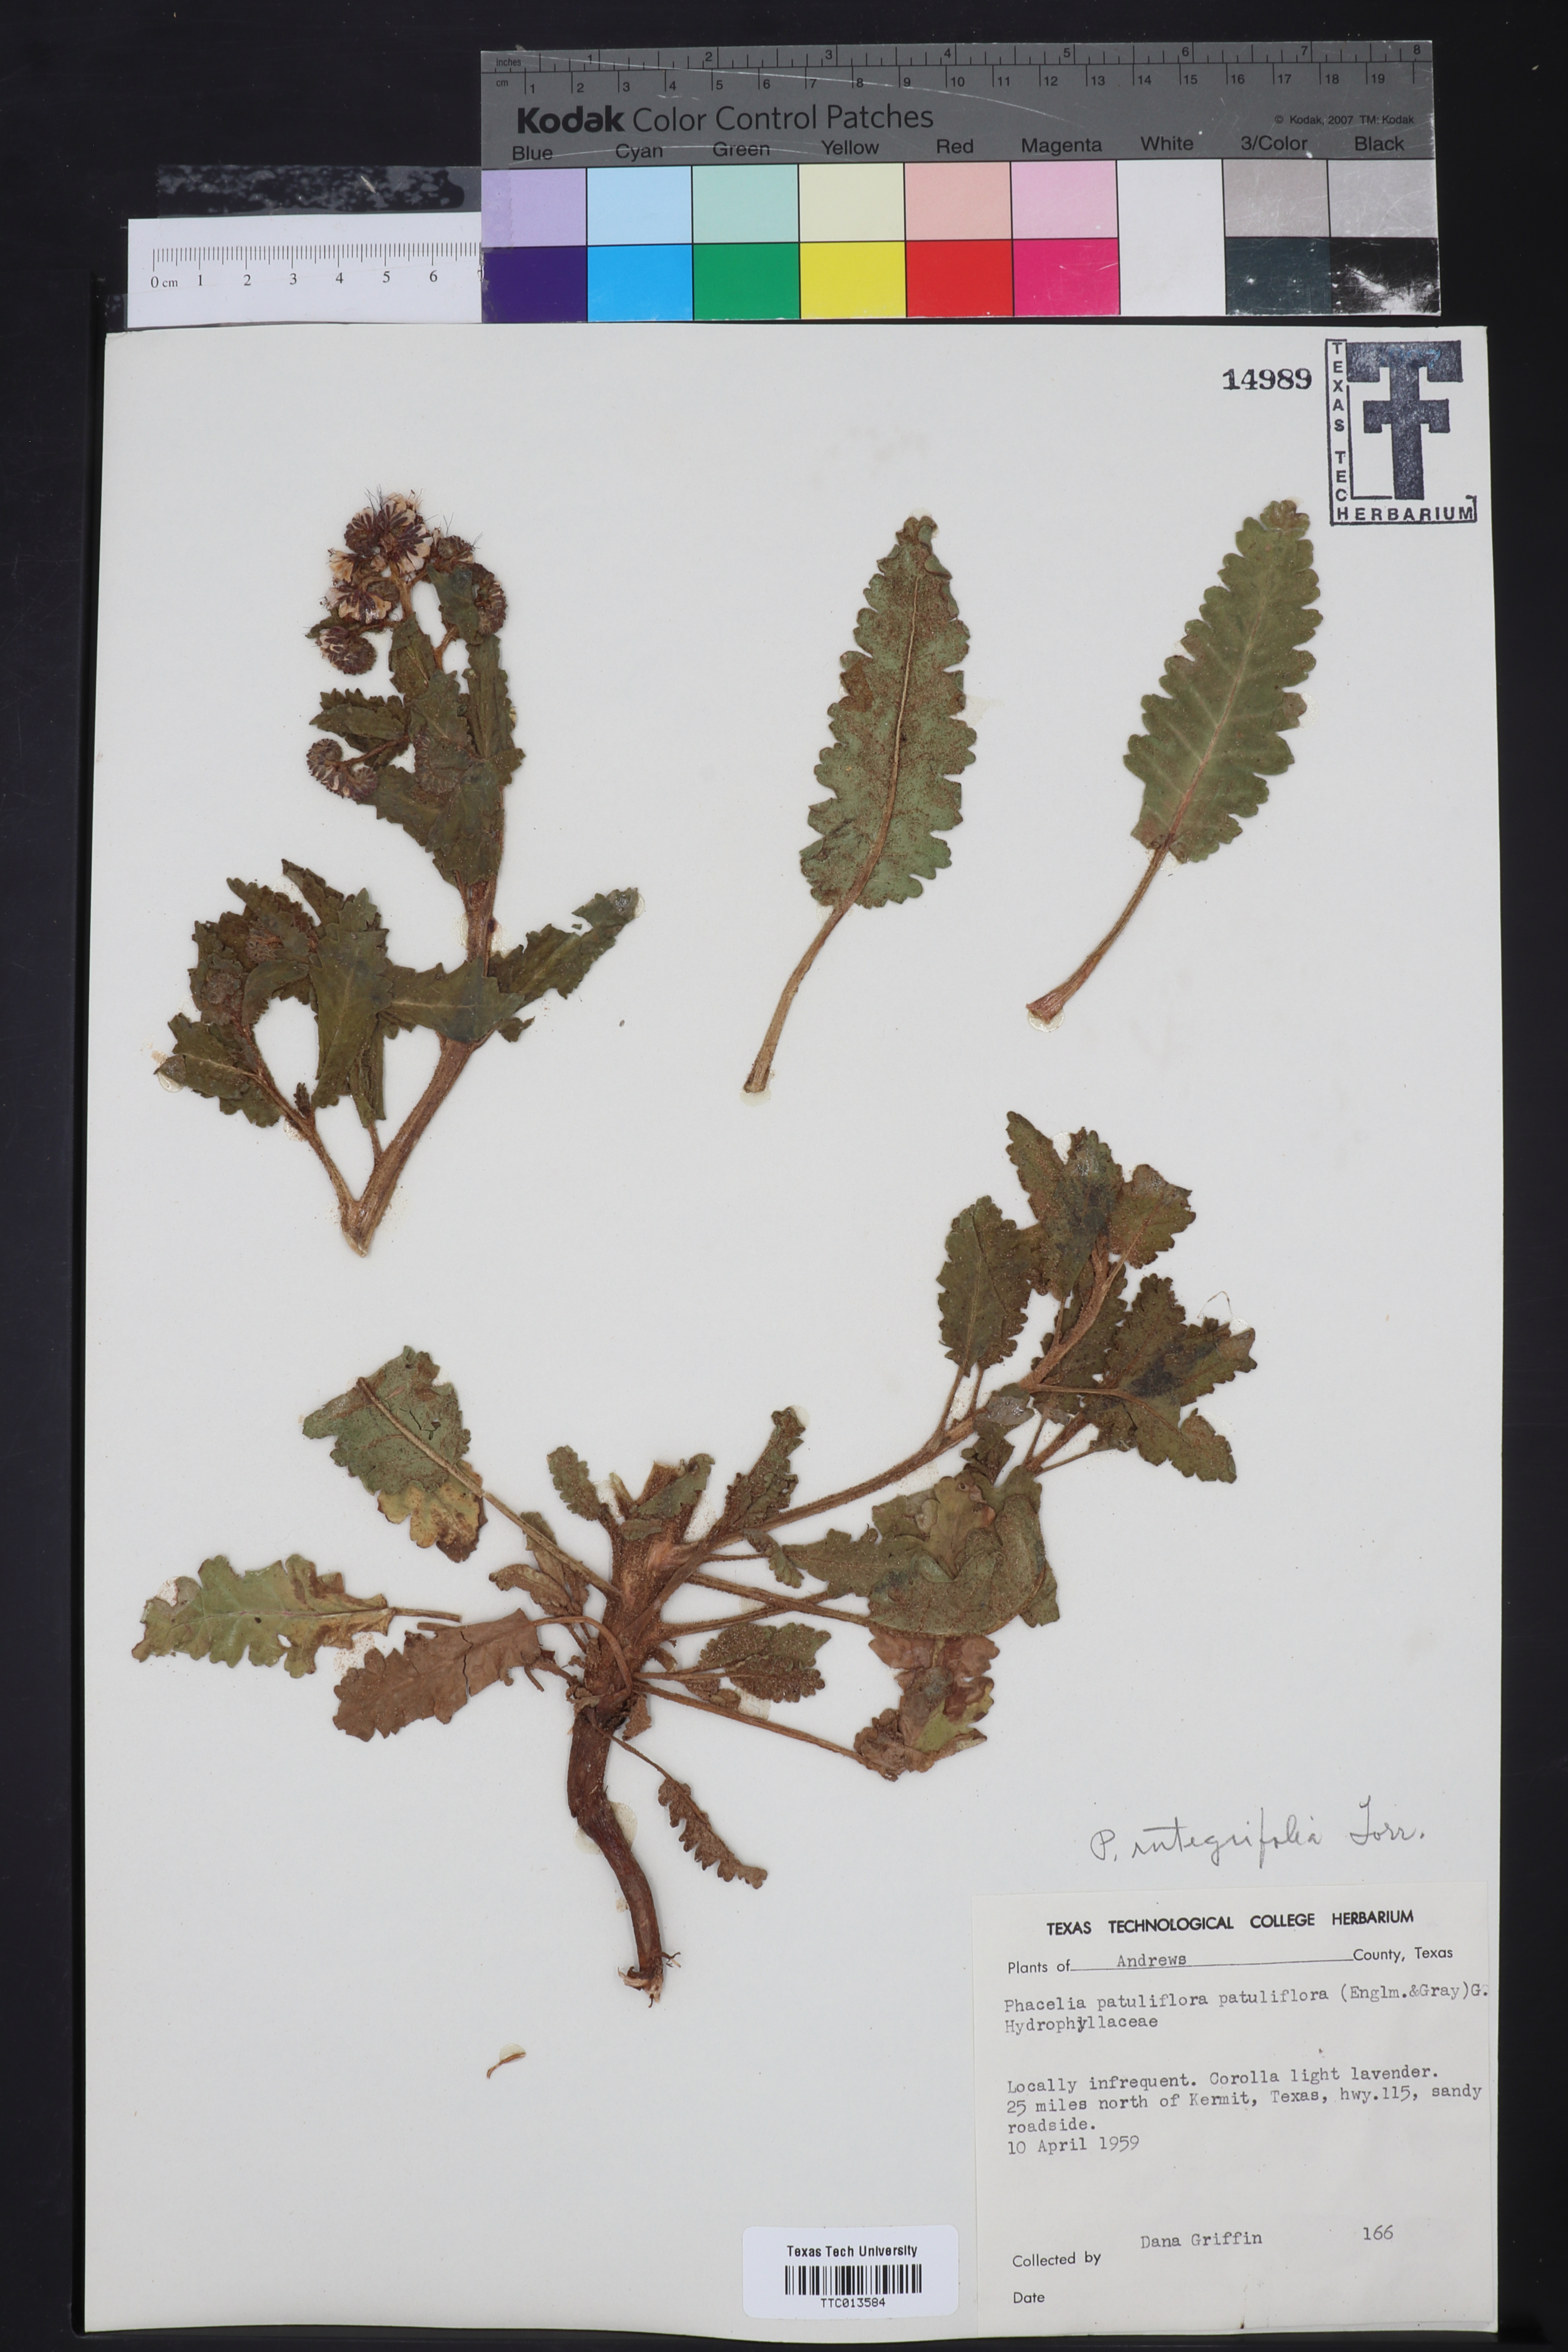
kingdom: Plantae
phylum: Tracheophyta
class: Magnoliopsida
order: Boraginales
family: Hydrophyllaceae
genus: Phacelia
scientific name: Phacelia integrifolia
